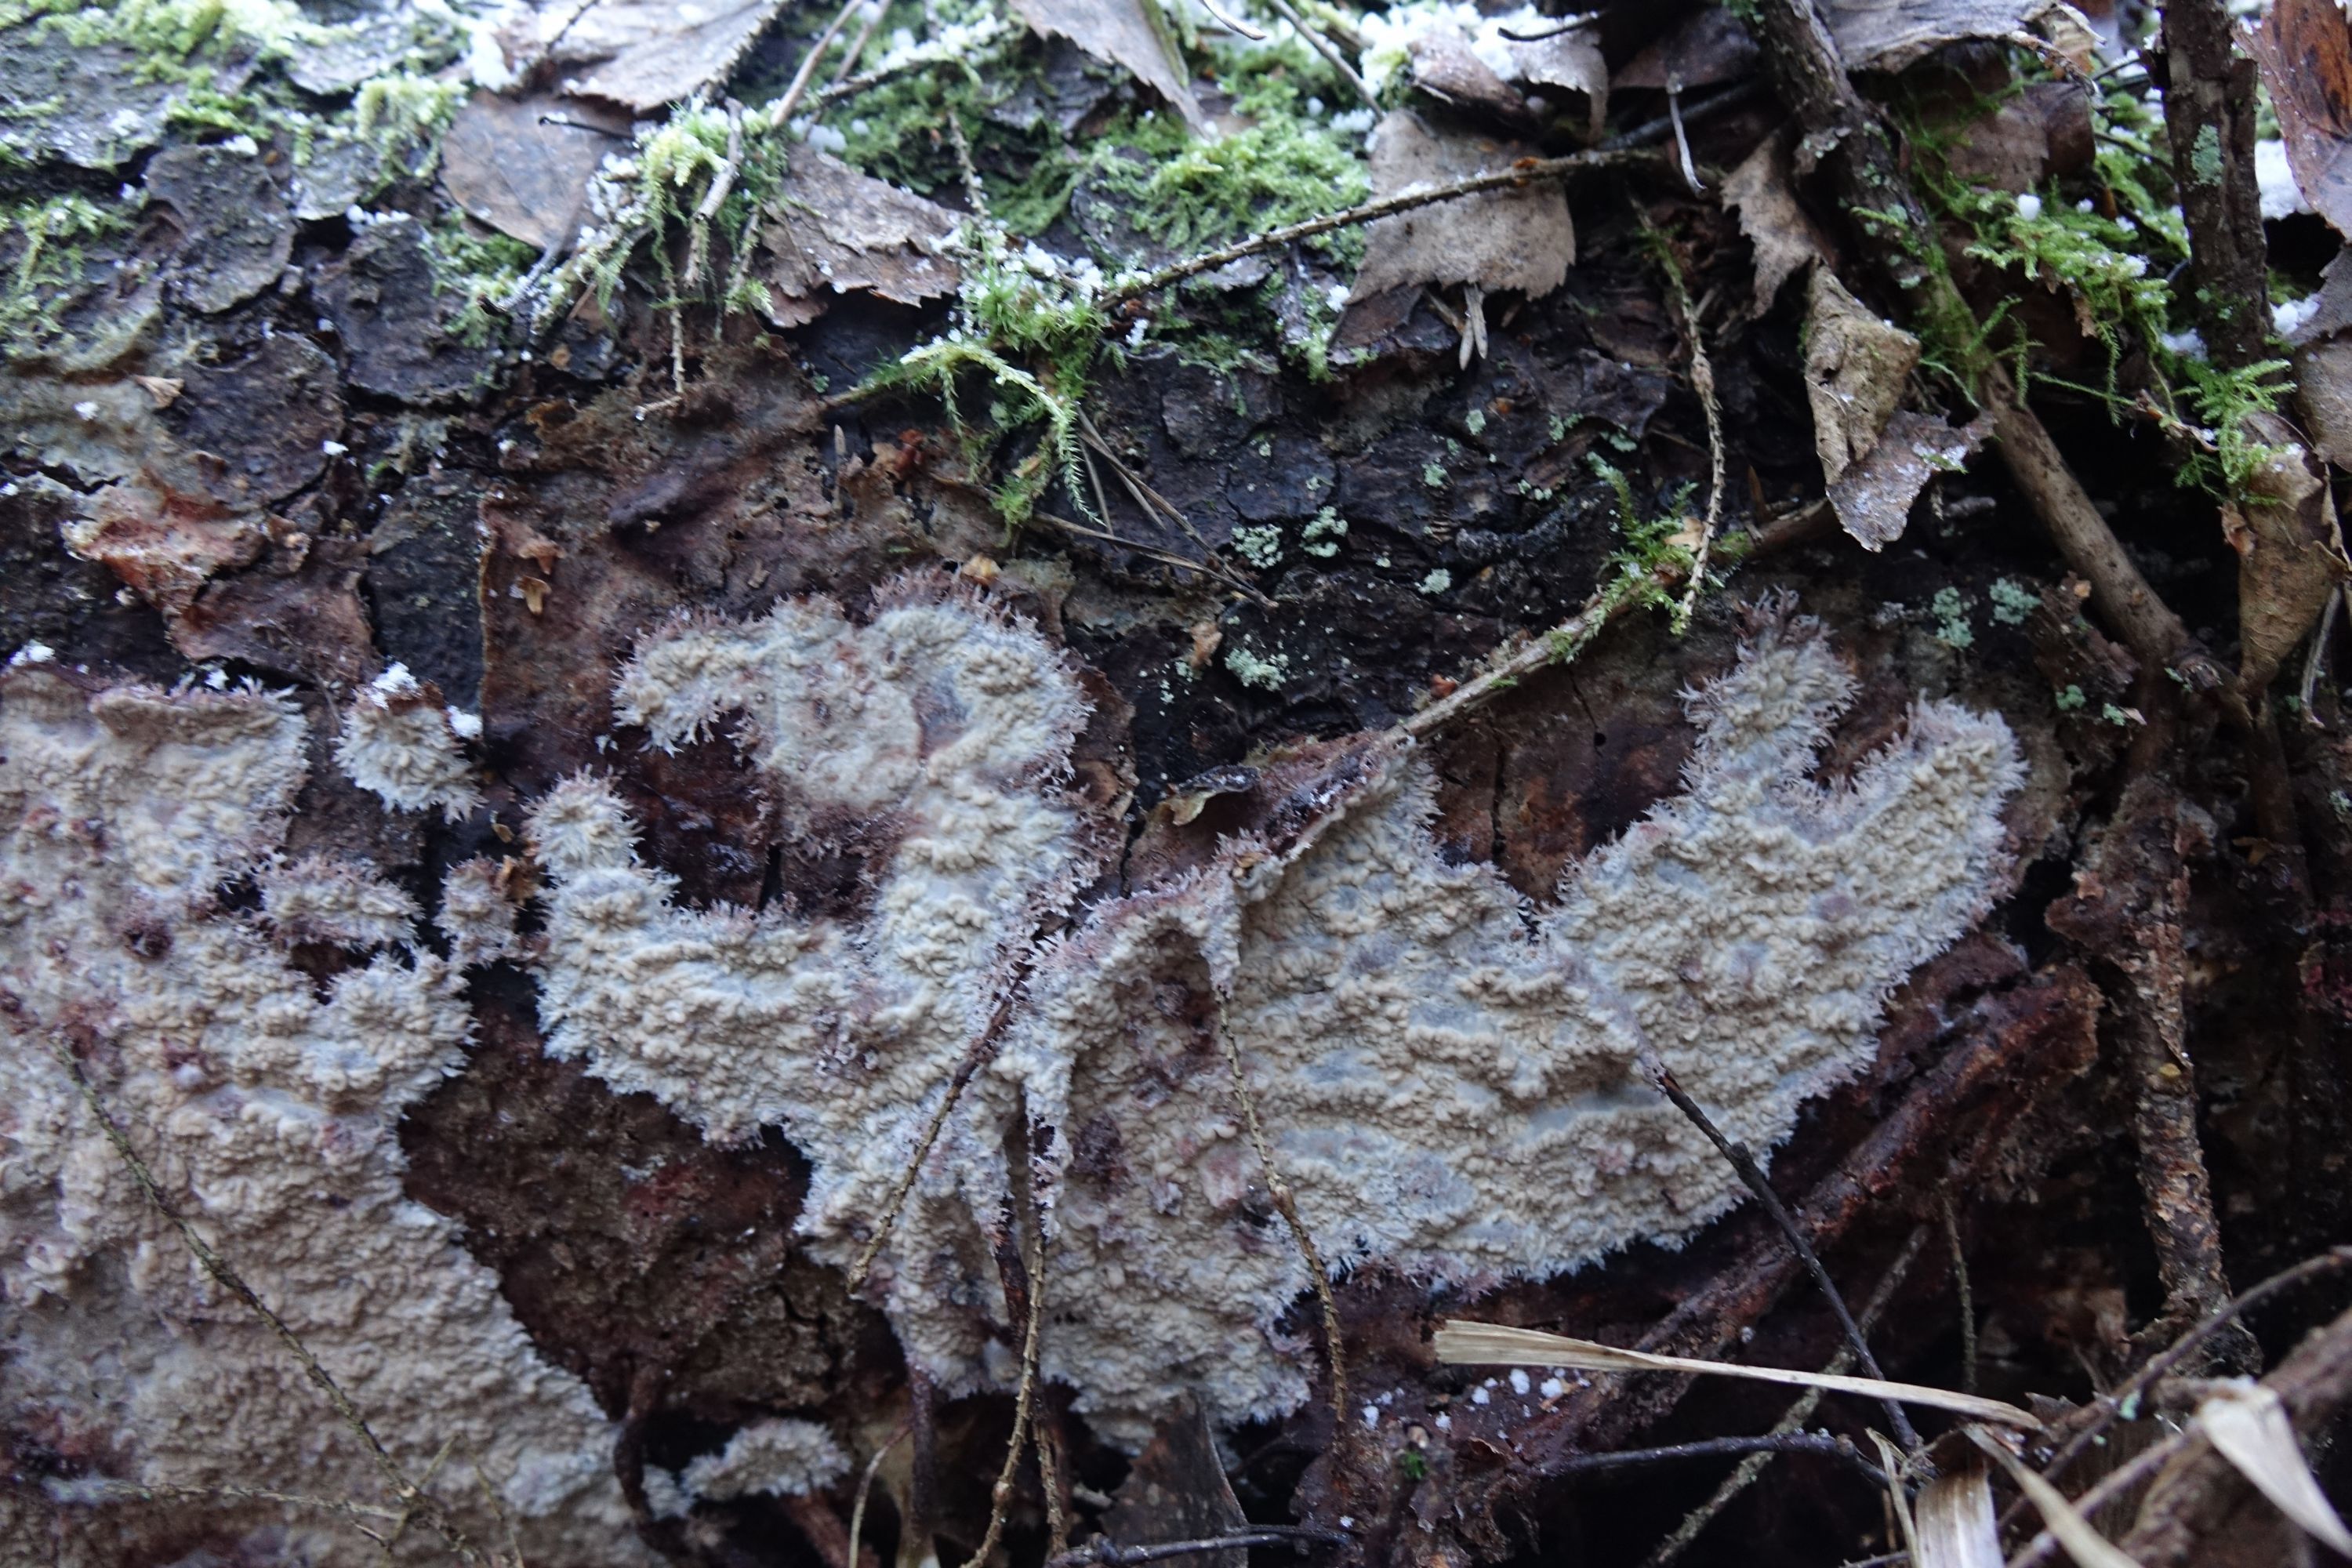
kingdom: Fungi
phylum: Basidiomycota
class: Agaricomycetes
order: Polyporales
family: Meruliaceae
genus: Hermanssonia
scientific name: Hermanssonia centrifuga
